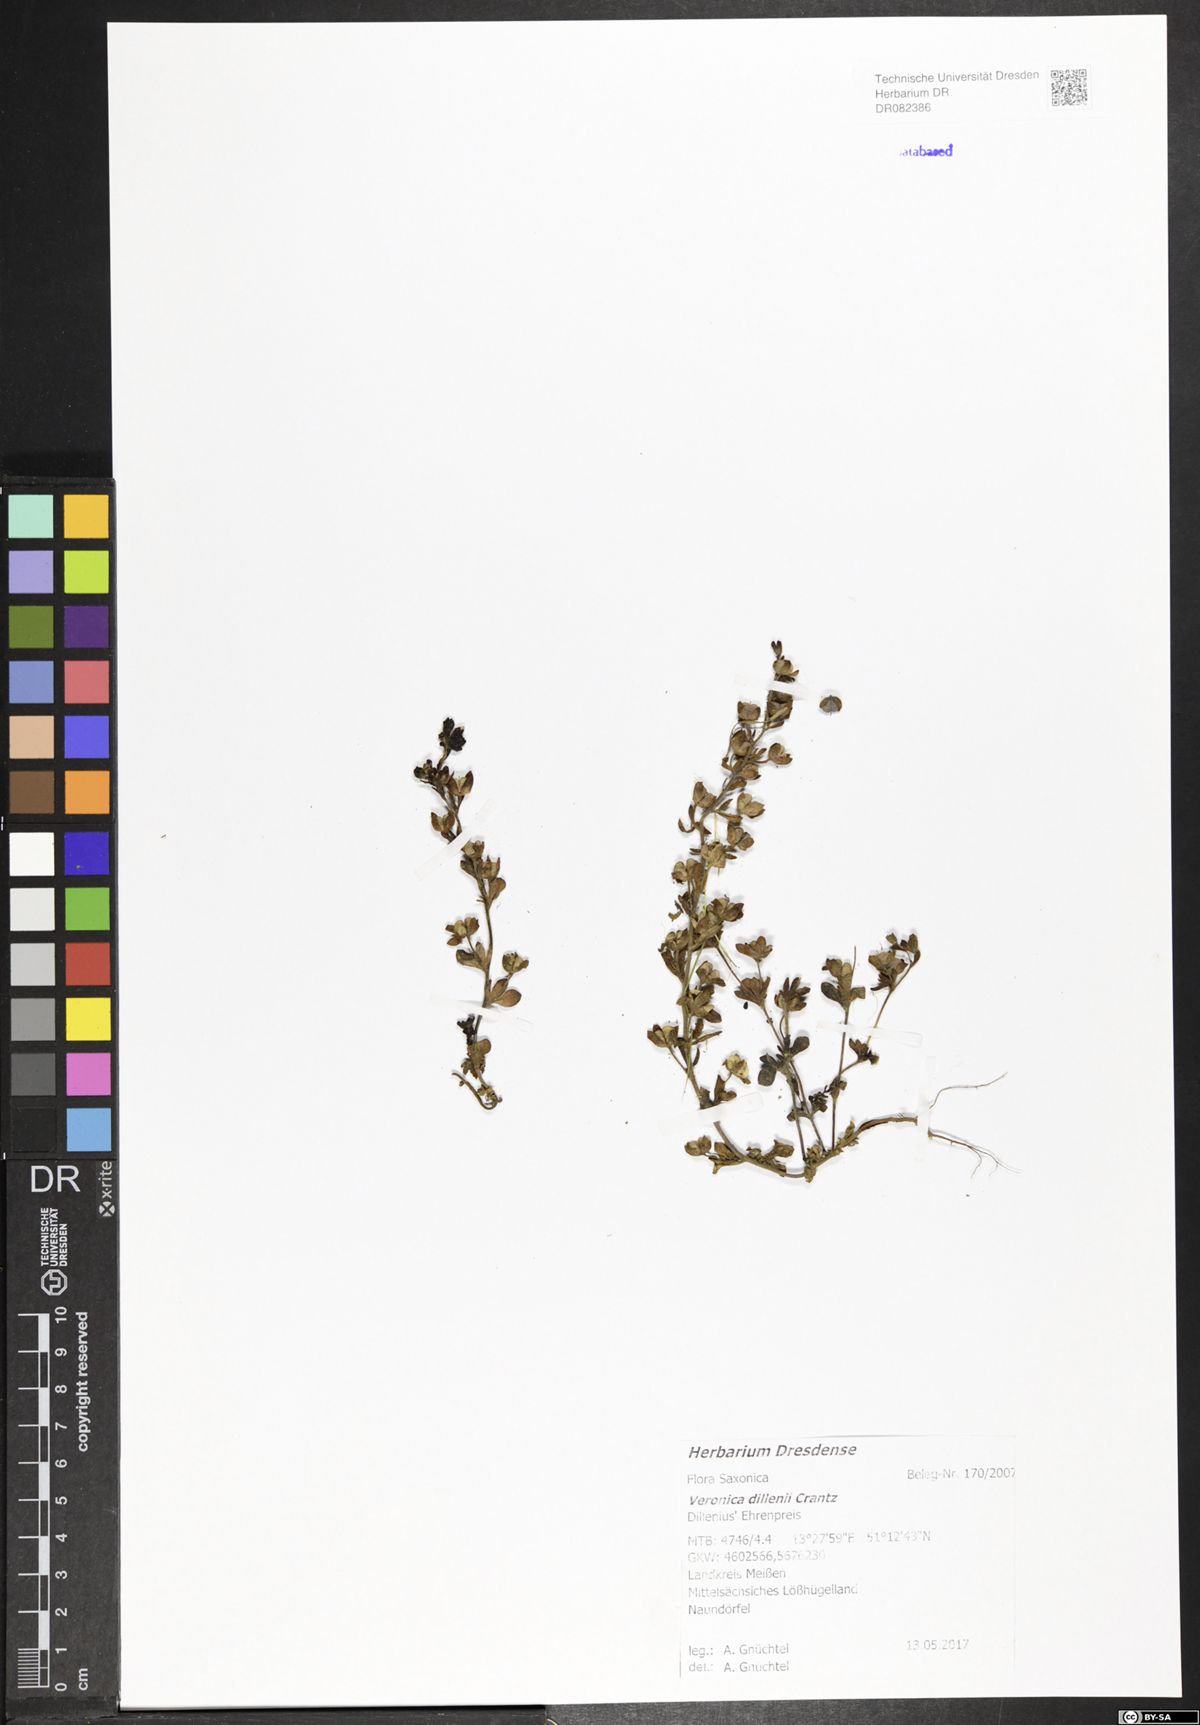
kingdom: Plantae
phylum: Tracheophyta
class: Magnoliopsida
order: Lamiales
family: Plantaginaceae
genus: Veronica
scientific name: Veronica dillenii
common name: Dillenius' speedwell
